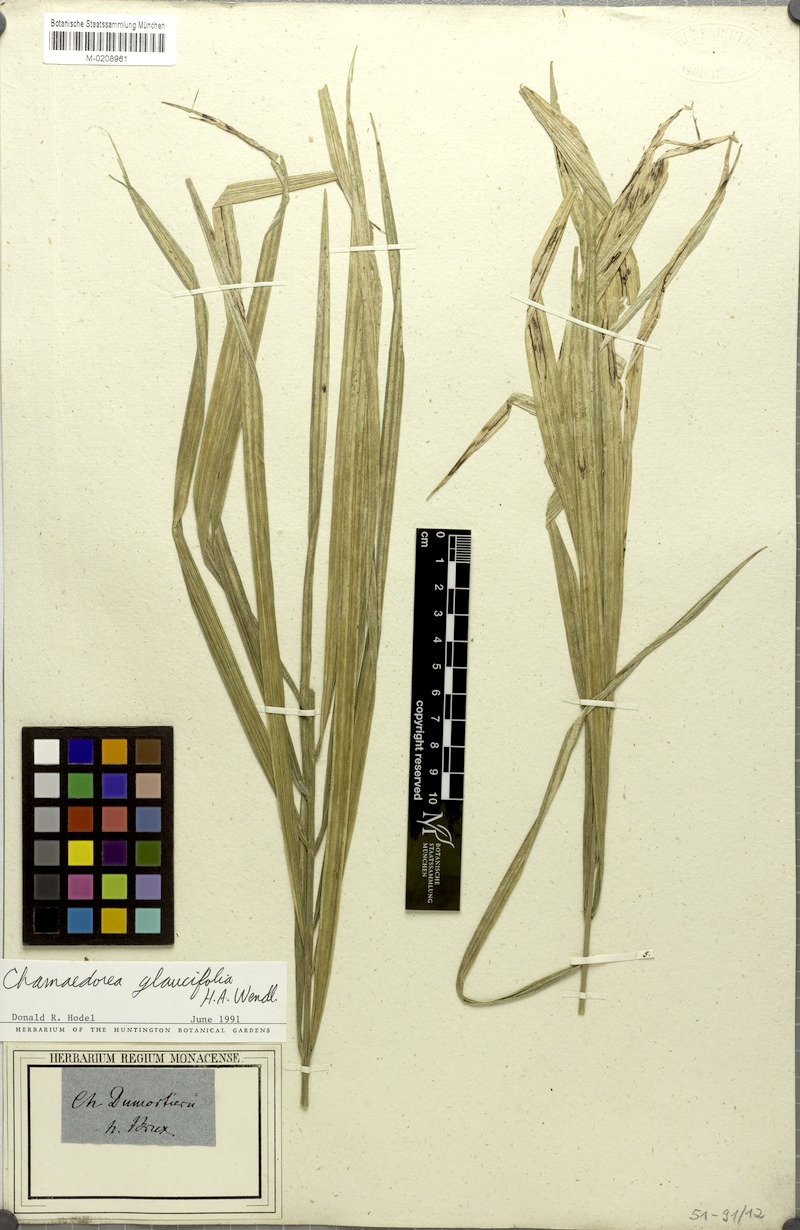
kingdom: Plantae
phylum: Tracheophyta
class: Liliopsida
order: Arecales
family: Arecaceae
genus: Chamaedorea
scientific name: Chamaedorea glaucifolia
